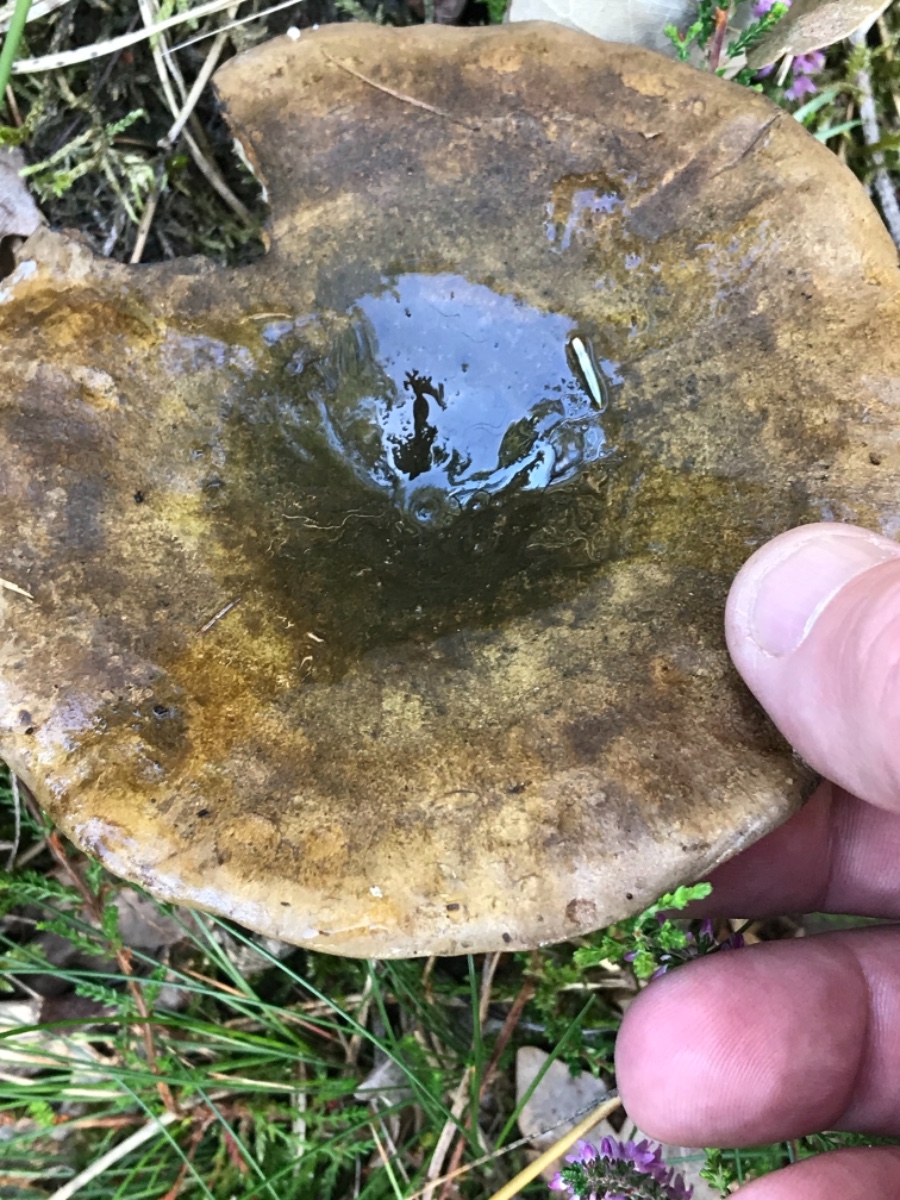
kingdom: Fungi
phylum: Basidiomycota
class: Agaricomycetes
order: Russulales
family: Russulaceae
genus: Lactarius
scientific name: Lactarius necator
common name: manddraber-mælkehat
